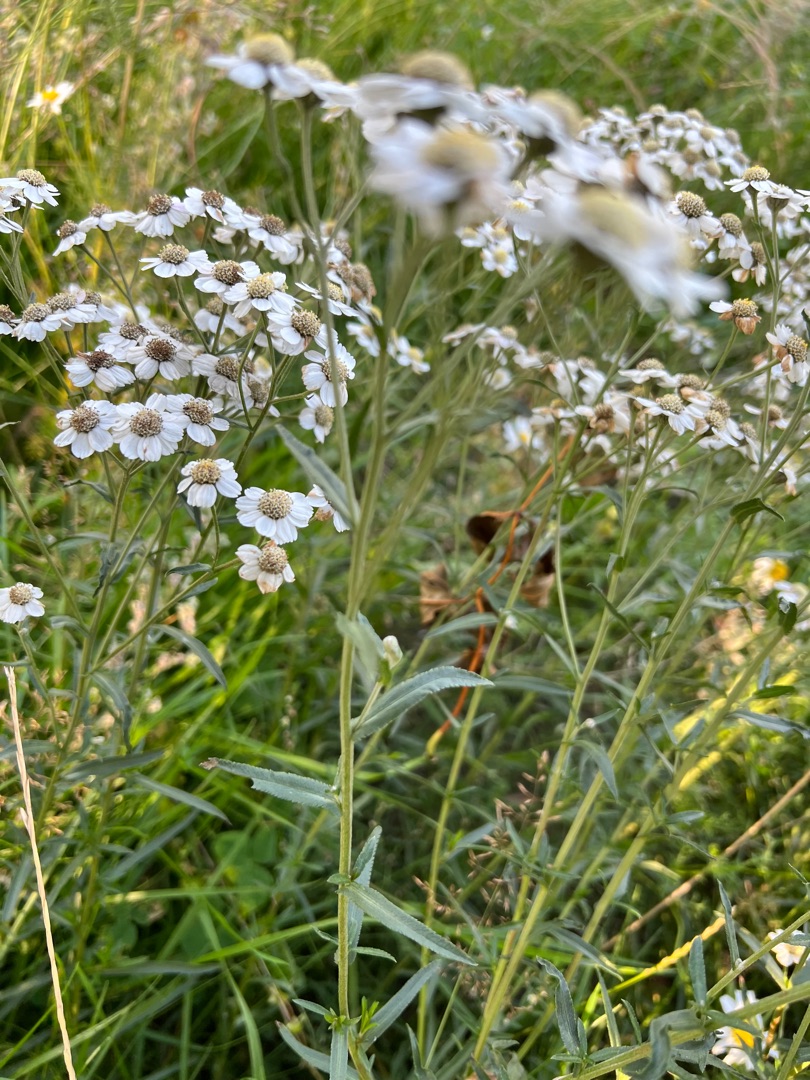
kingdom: Plantae
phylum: Tracheophyta
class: Magnoliopsida
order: Asterales
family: Asteraceae
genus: Achillea
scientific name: Achillea ptarmica
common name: Nyse-røllike
